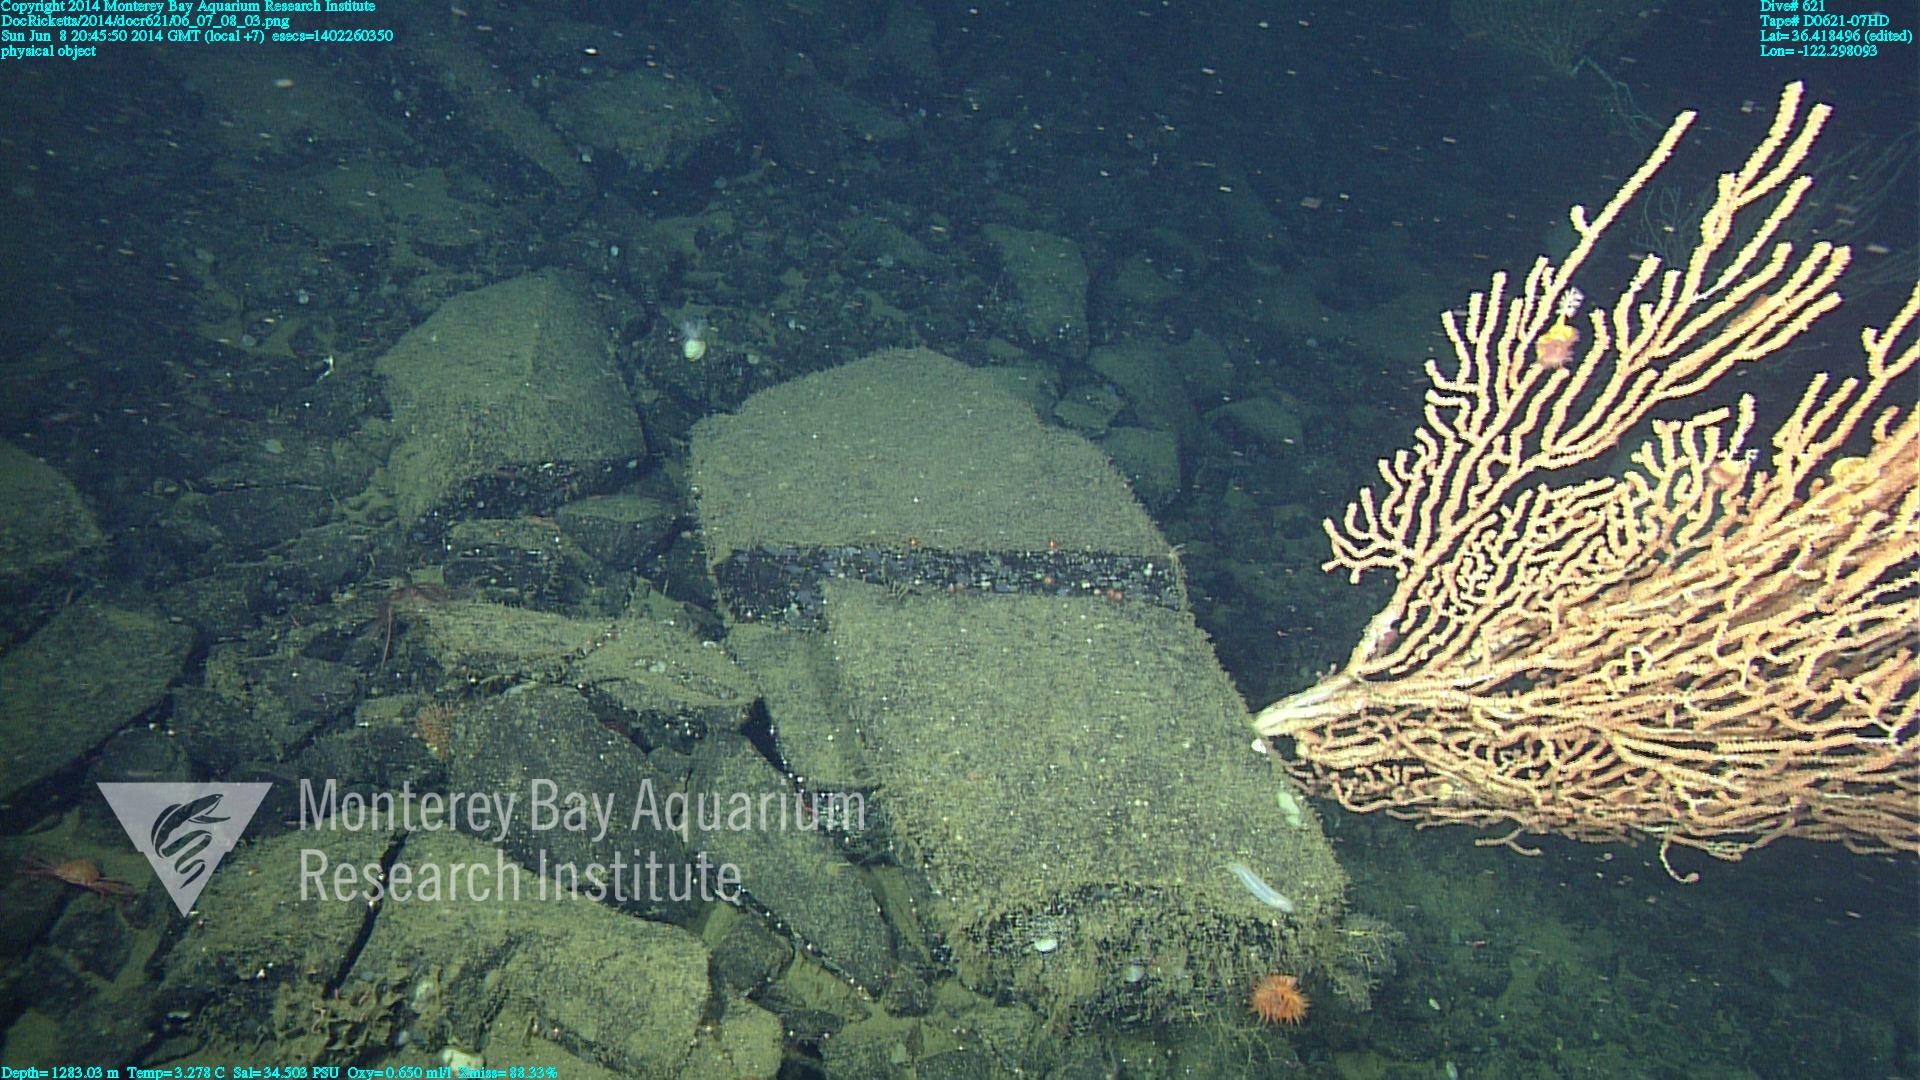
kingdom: Animalia
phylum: Cnidaria
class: Anthozoa
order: Scleralcyonacea
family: Keratoisididae
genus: Keratoisis
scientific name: Keratoisis
